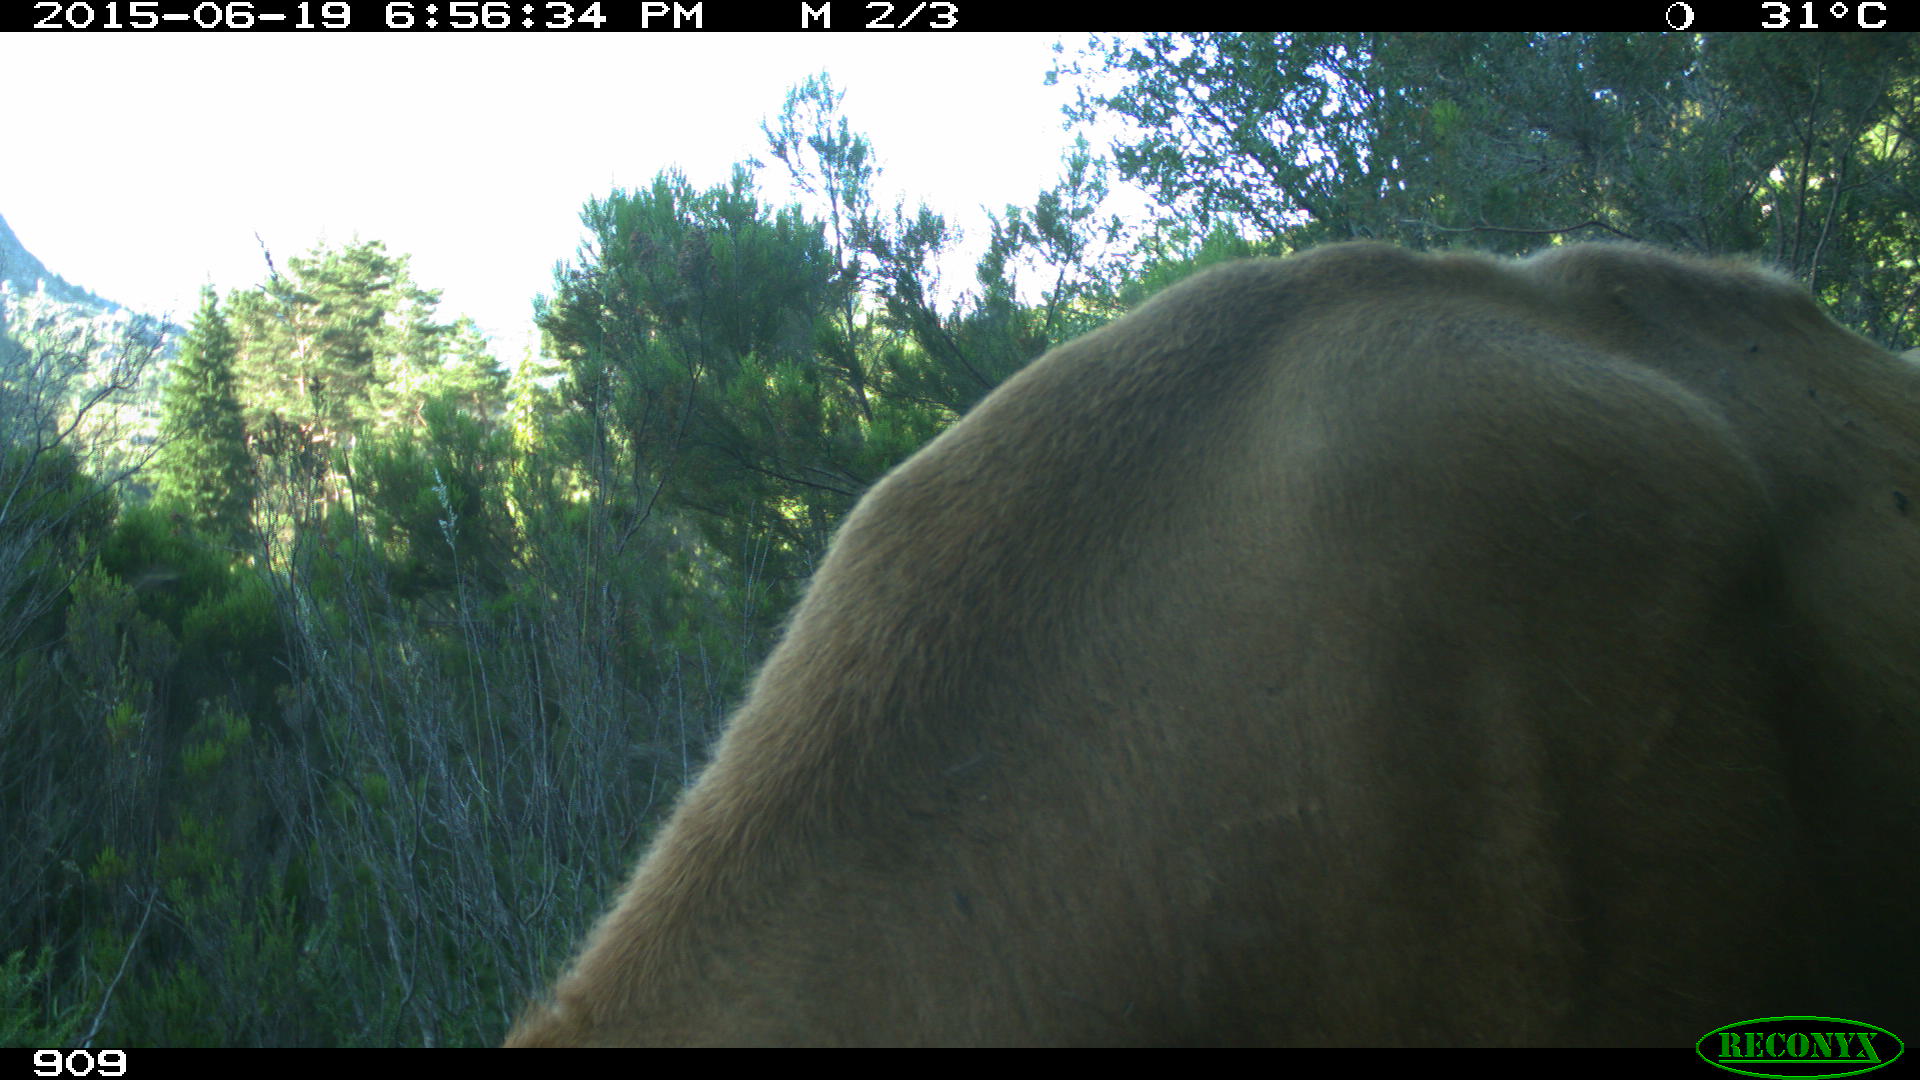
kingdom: Animalia
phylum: Chordata
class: Mammalia
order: Artiodactyla
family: Bovidae
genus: Bos
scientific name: Bos taurus
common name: Domesticated cattle
